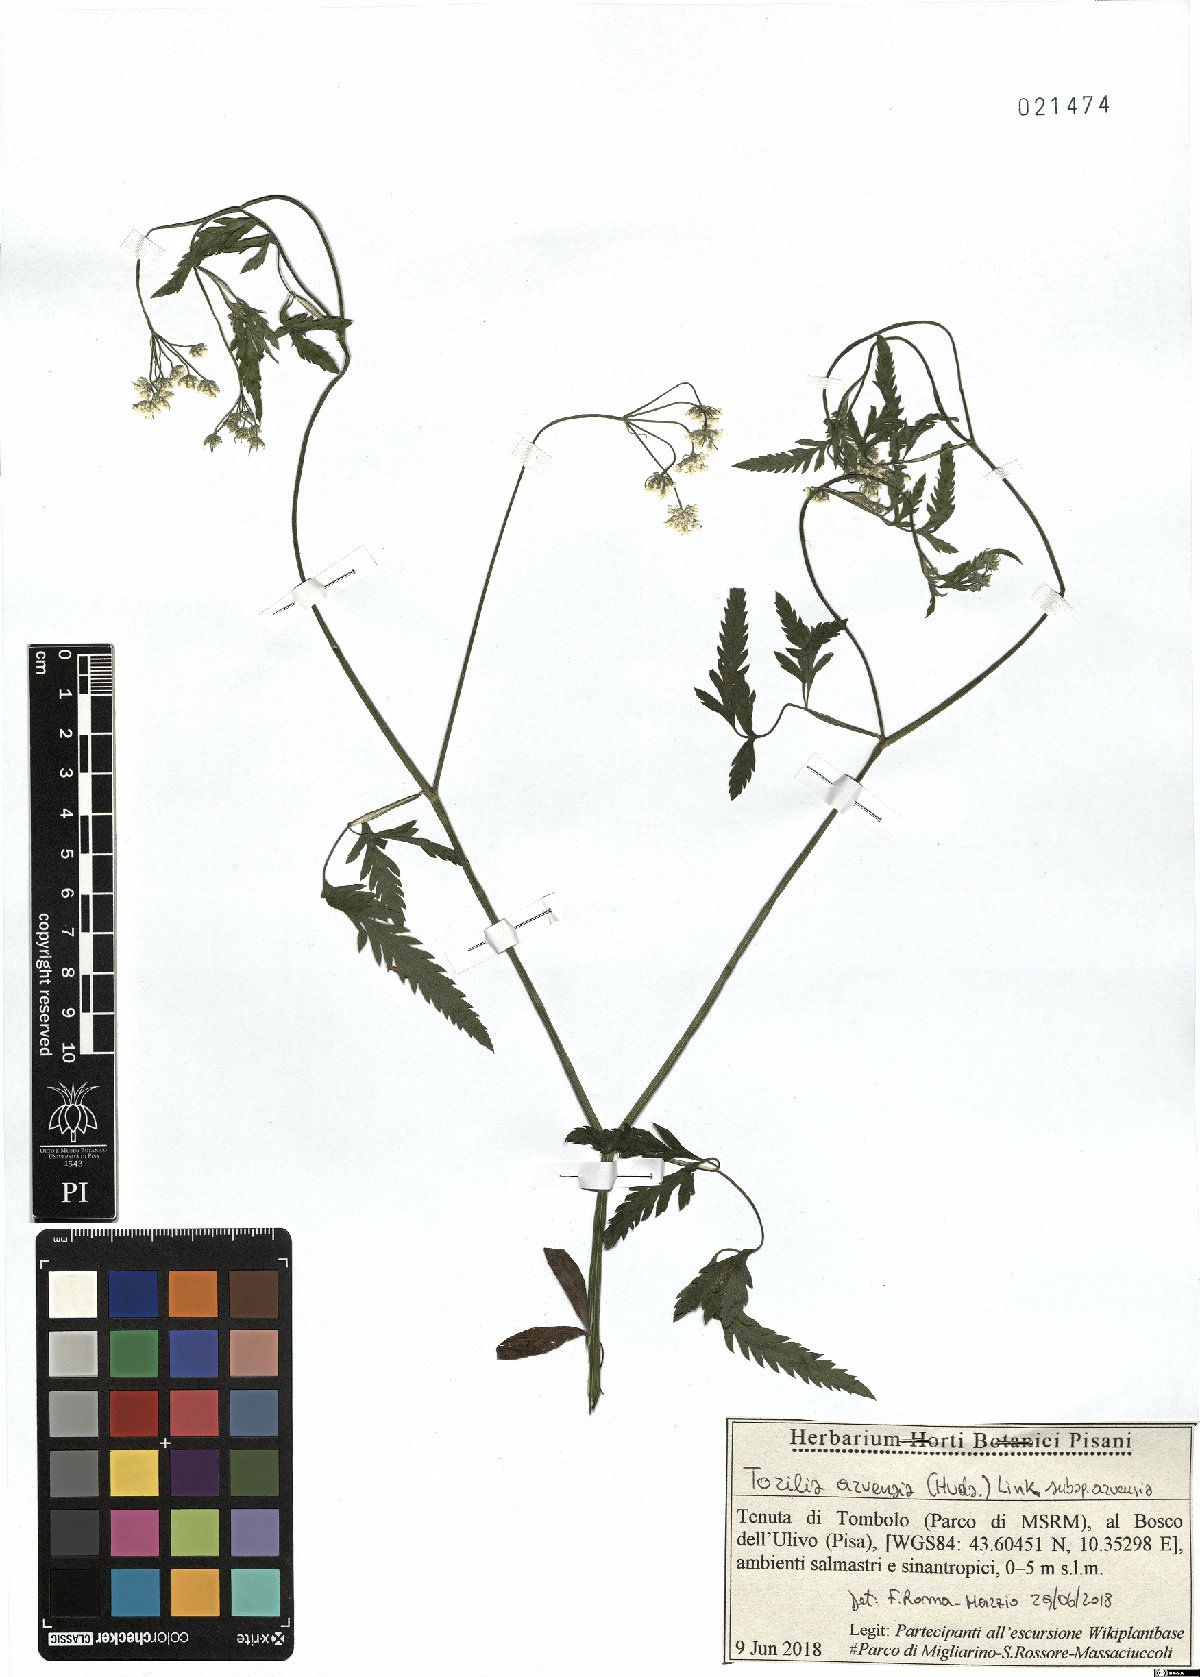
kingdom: Plantae
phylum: Tracheophyta
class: Magnoliopsida
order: Apiales
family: Apiaceae
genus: Torilis
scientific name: Torilis arvensis
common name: Spreading hedge-parsley
